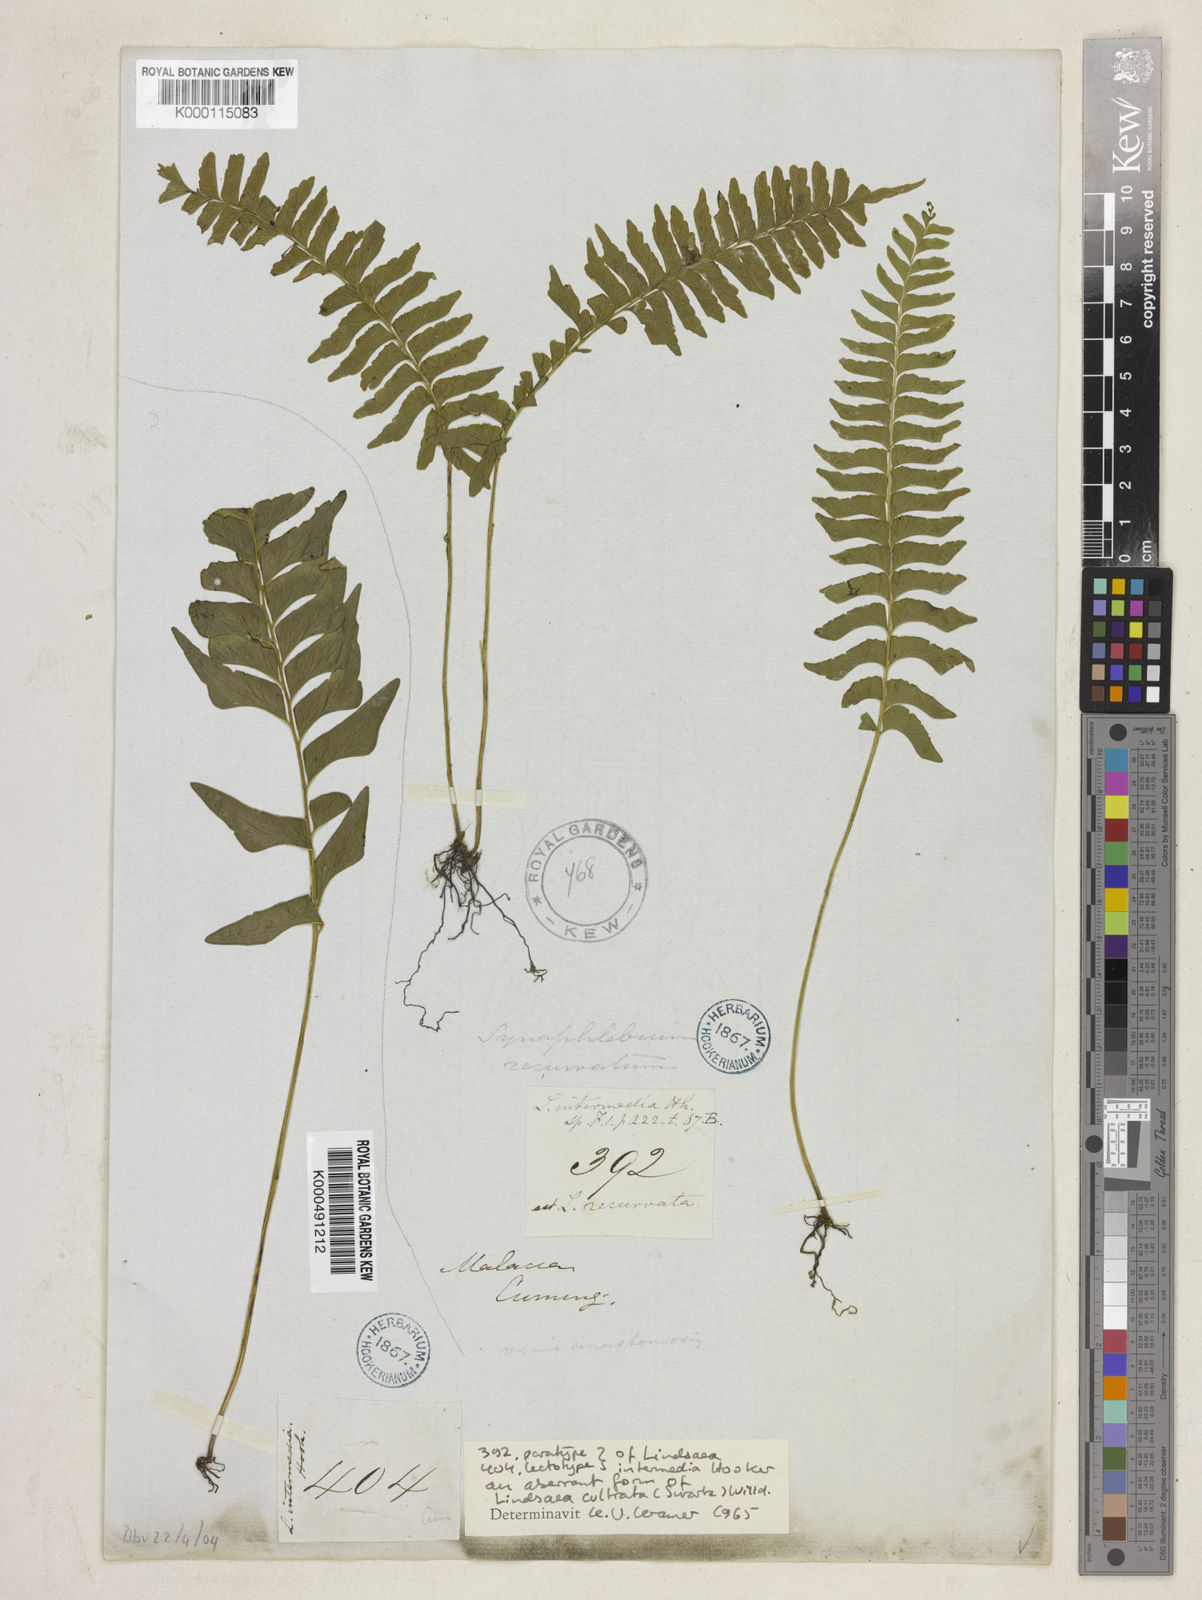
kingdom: Plantae
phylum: Tracheophyta
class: Polypodiopsida
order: Polypodiales
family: Lindsaeaceae
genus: Lindsaea
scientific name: Lindsaea cultrata
